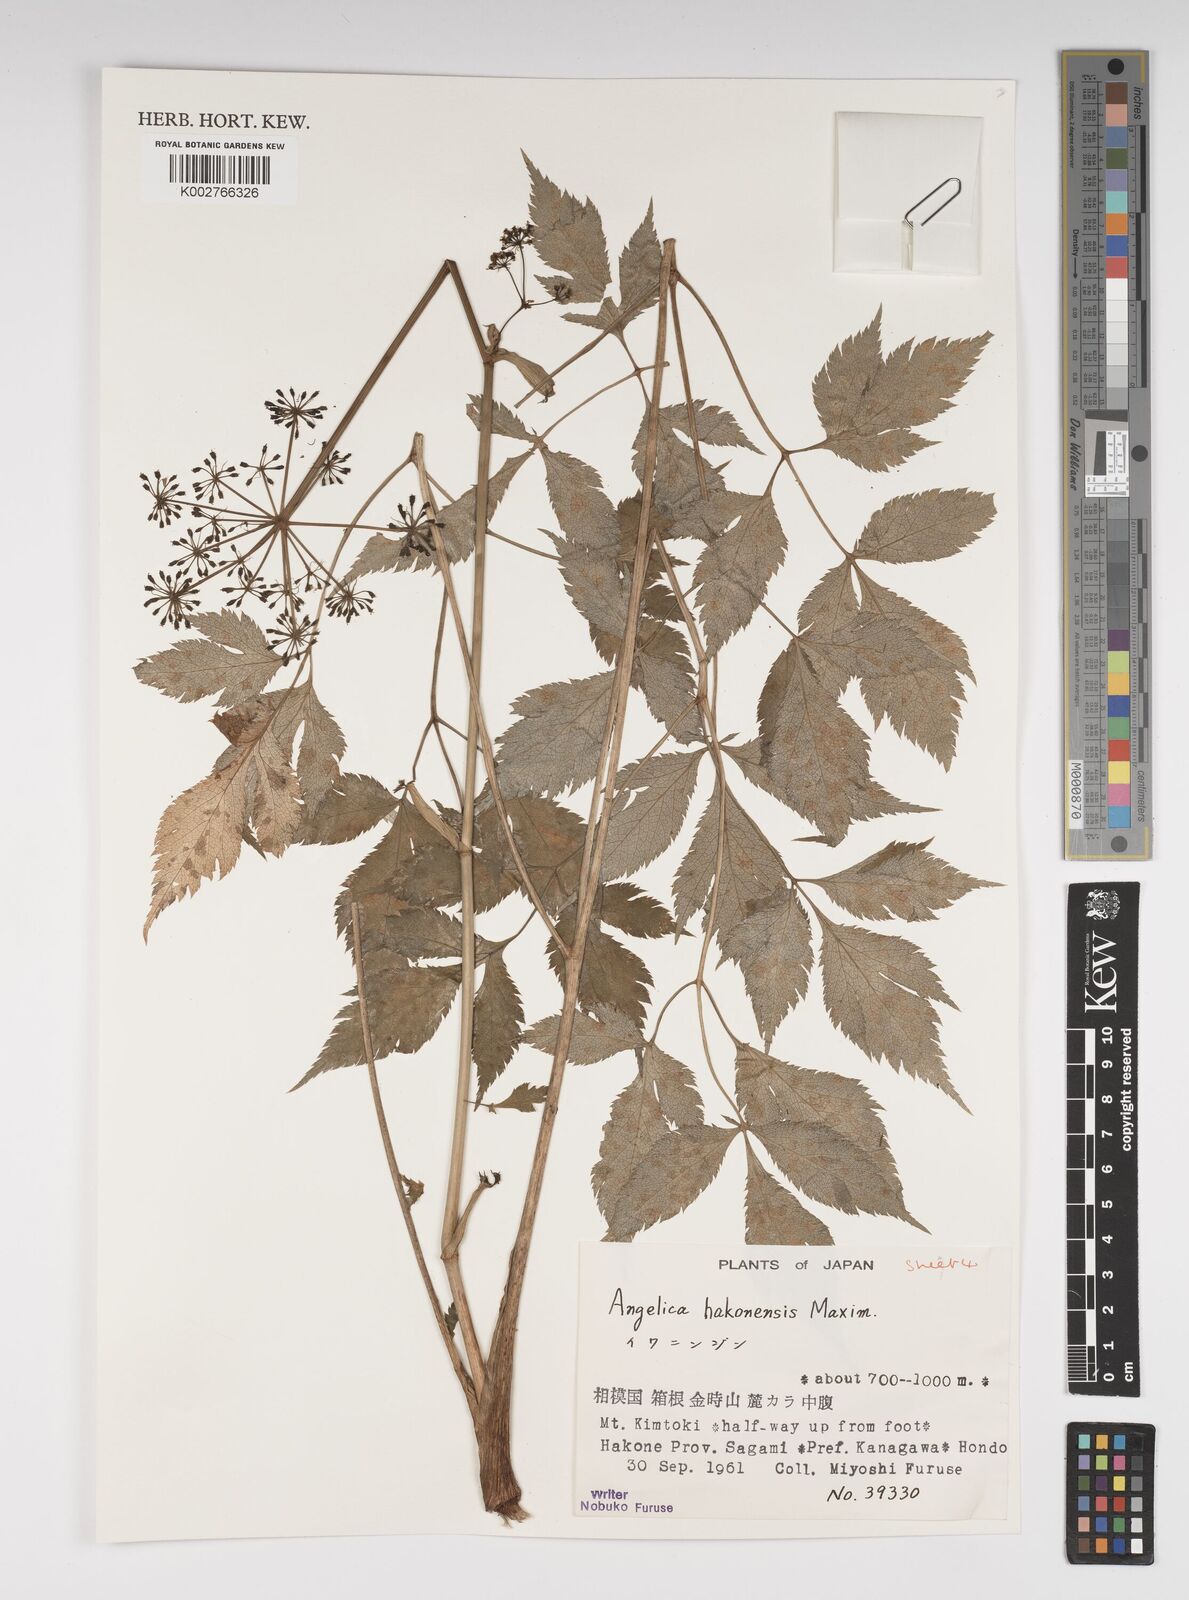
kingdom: Plantae
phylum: Tracheophyta
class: Magnoliopsida
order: Apiales
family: Apiaceae
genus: Angelica
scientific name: Angelica hakonensis
